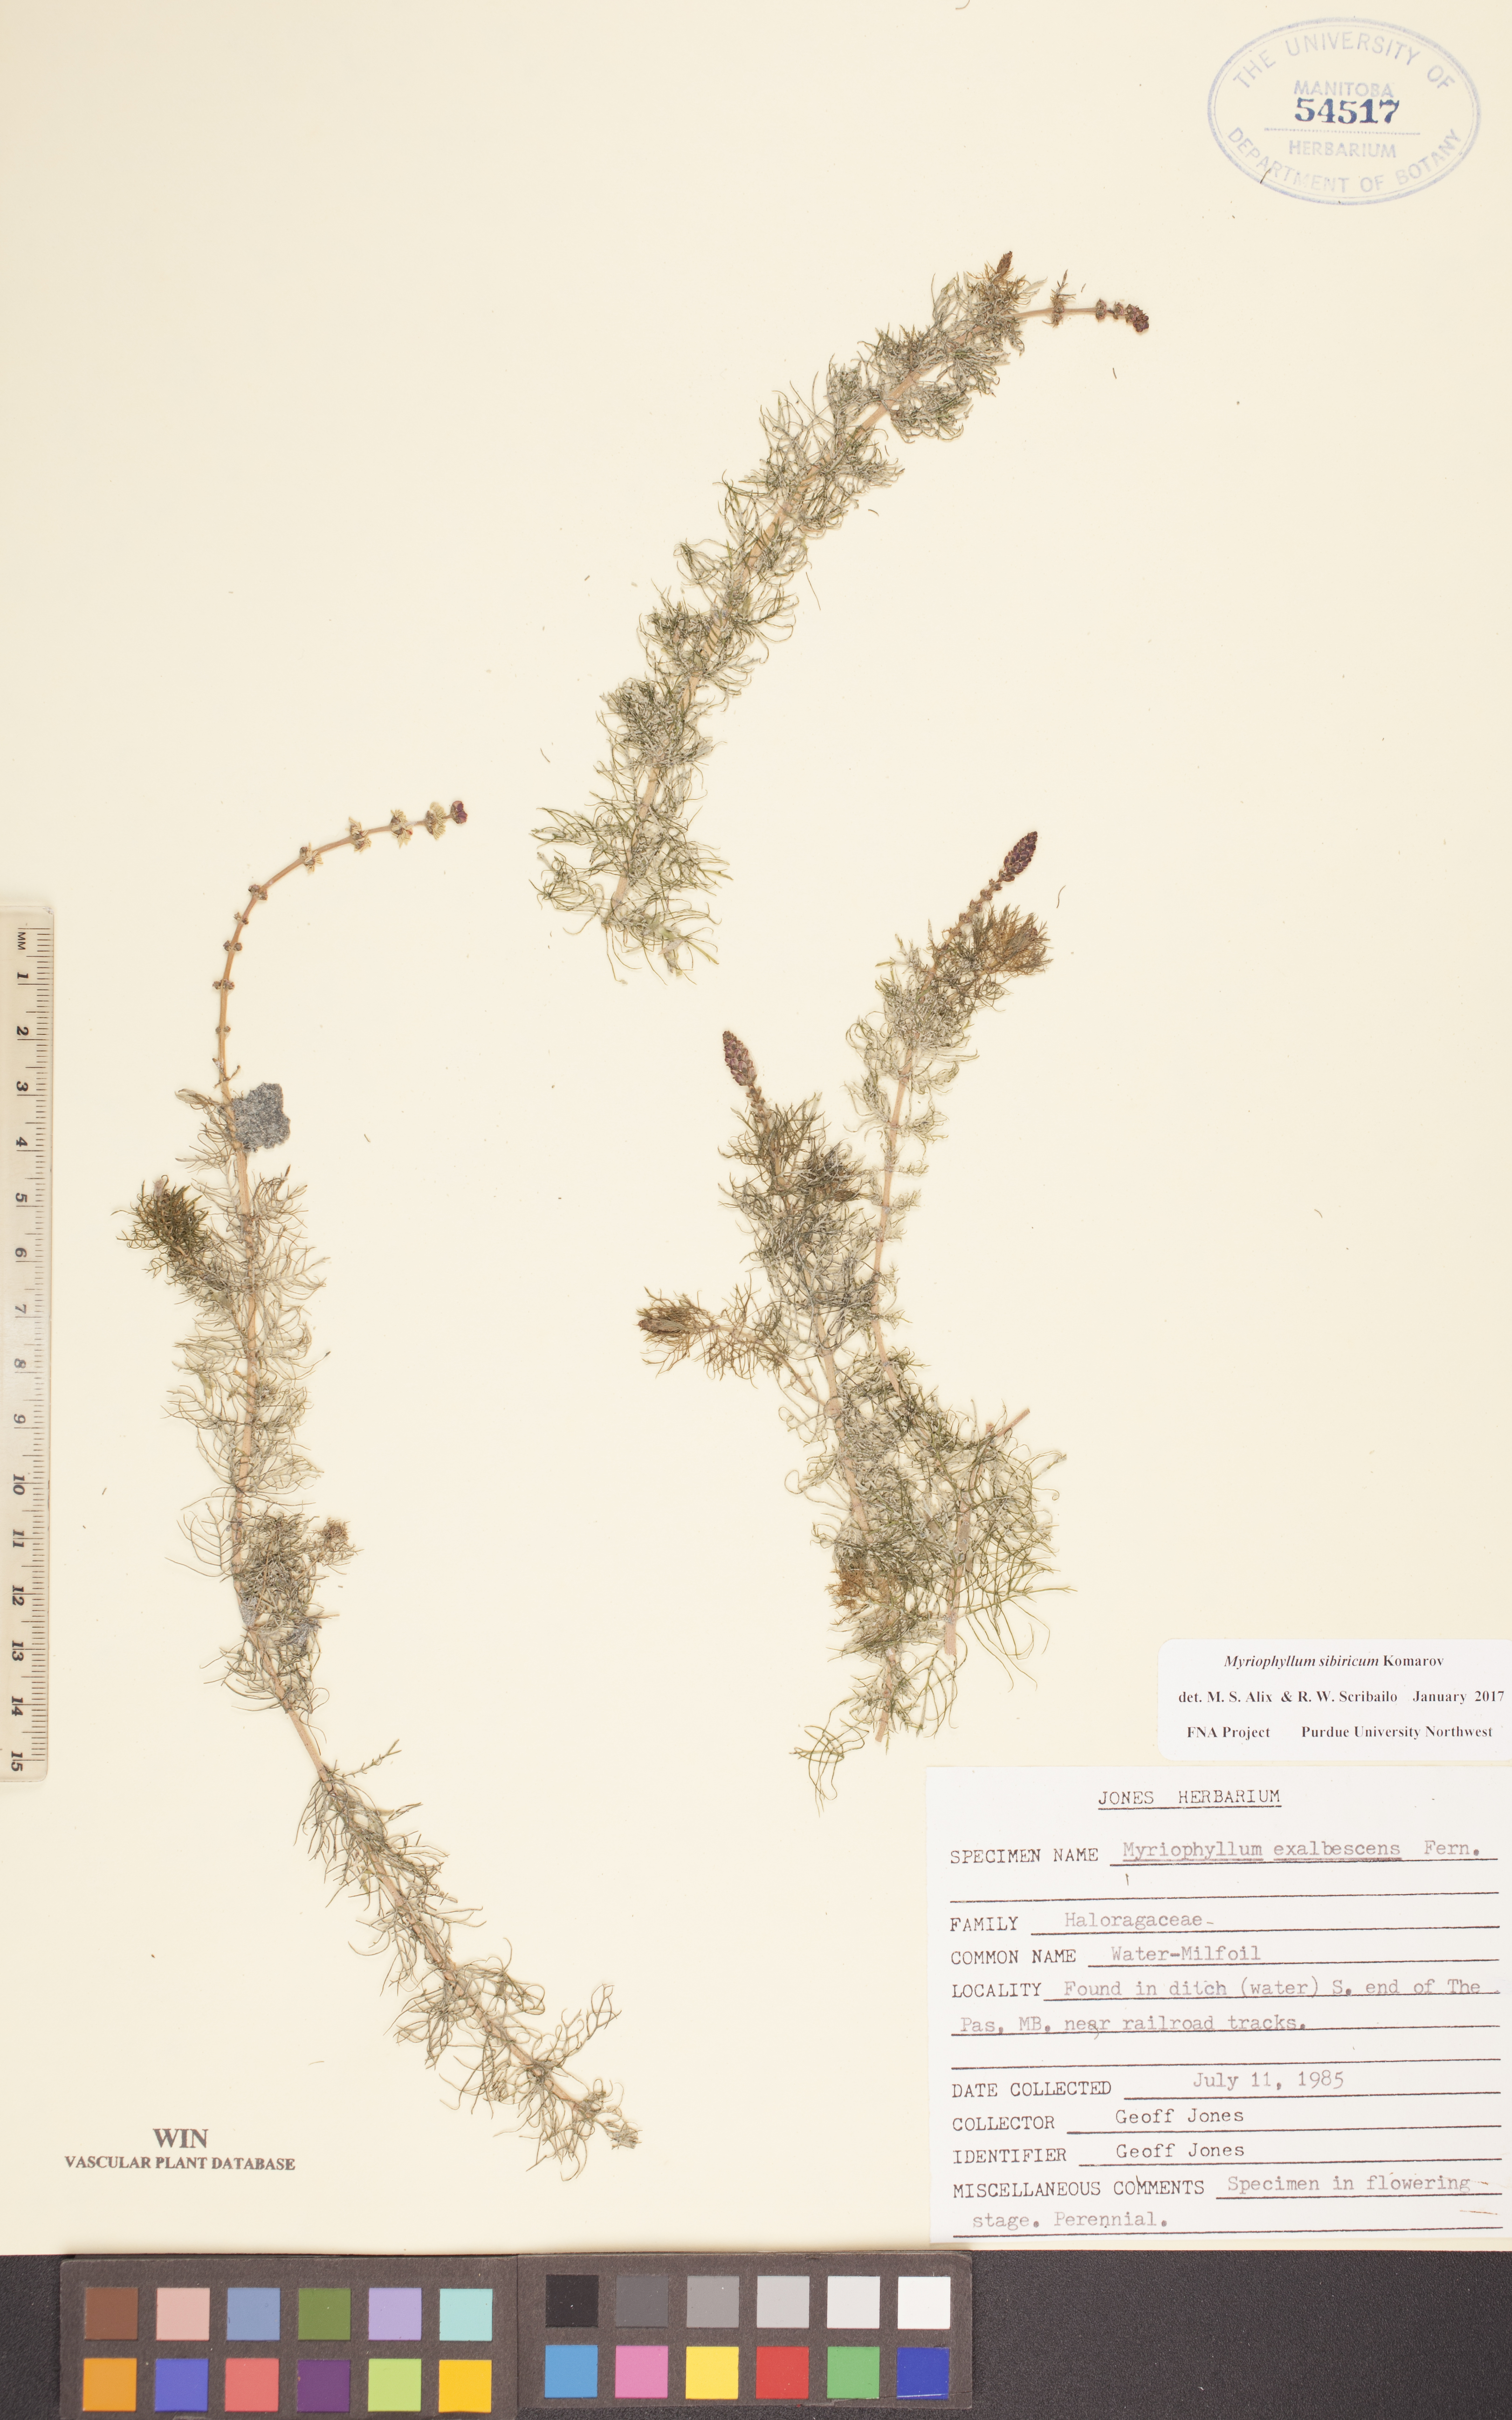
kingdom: Plantae
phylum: Tracheophyta
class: Magnoliopsida
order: Saxifragales
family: Haloragaceae
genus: Myriophyllum
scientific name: Myriophyllum sibiricum
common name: Siberian water-milfoil
